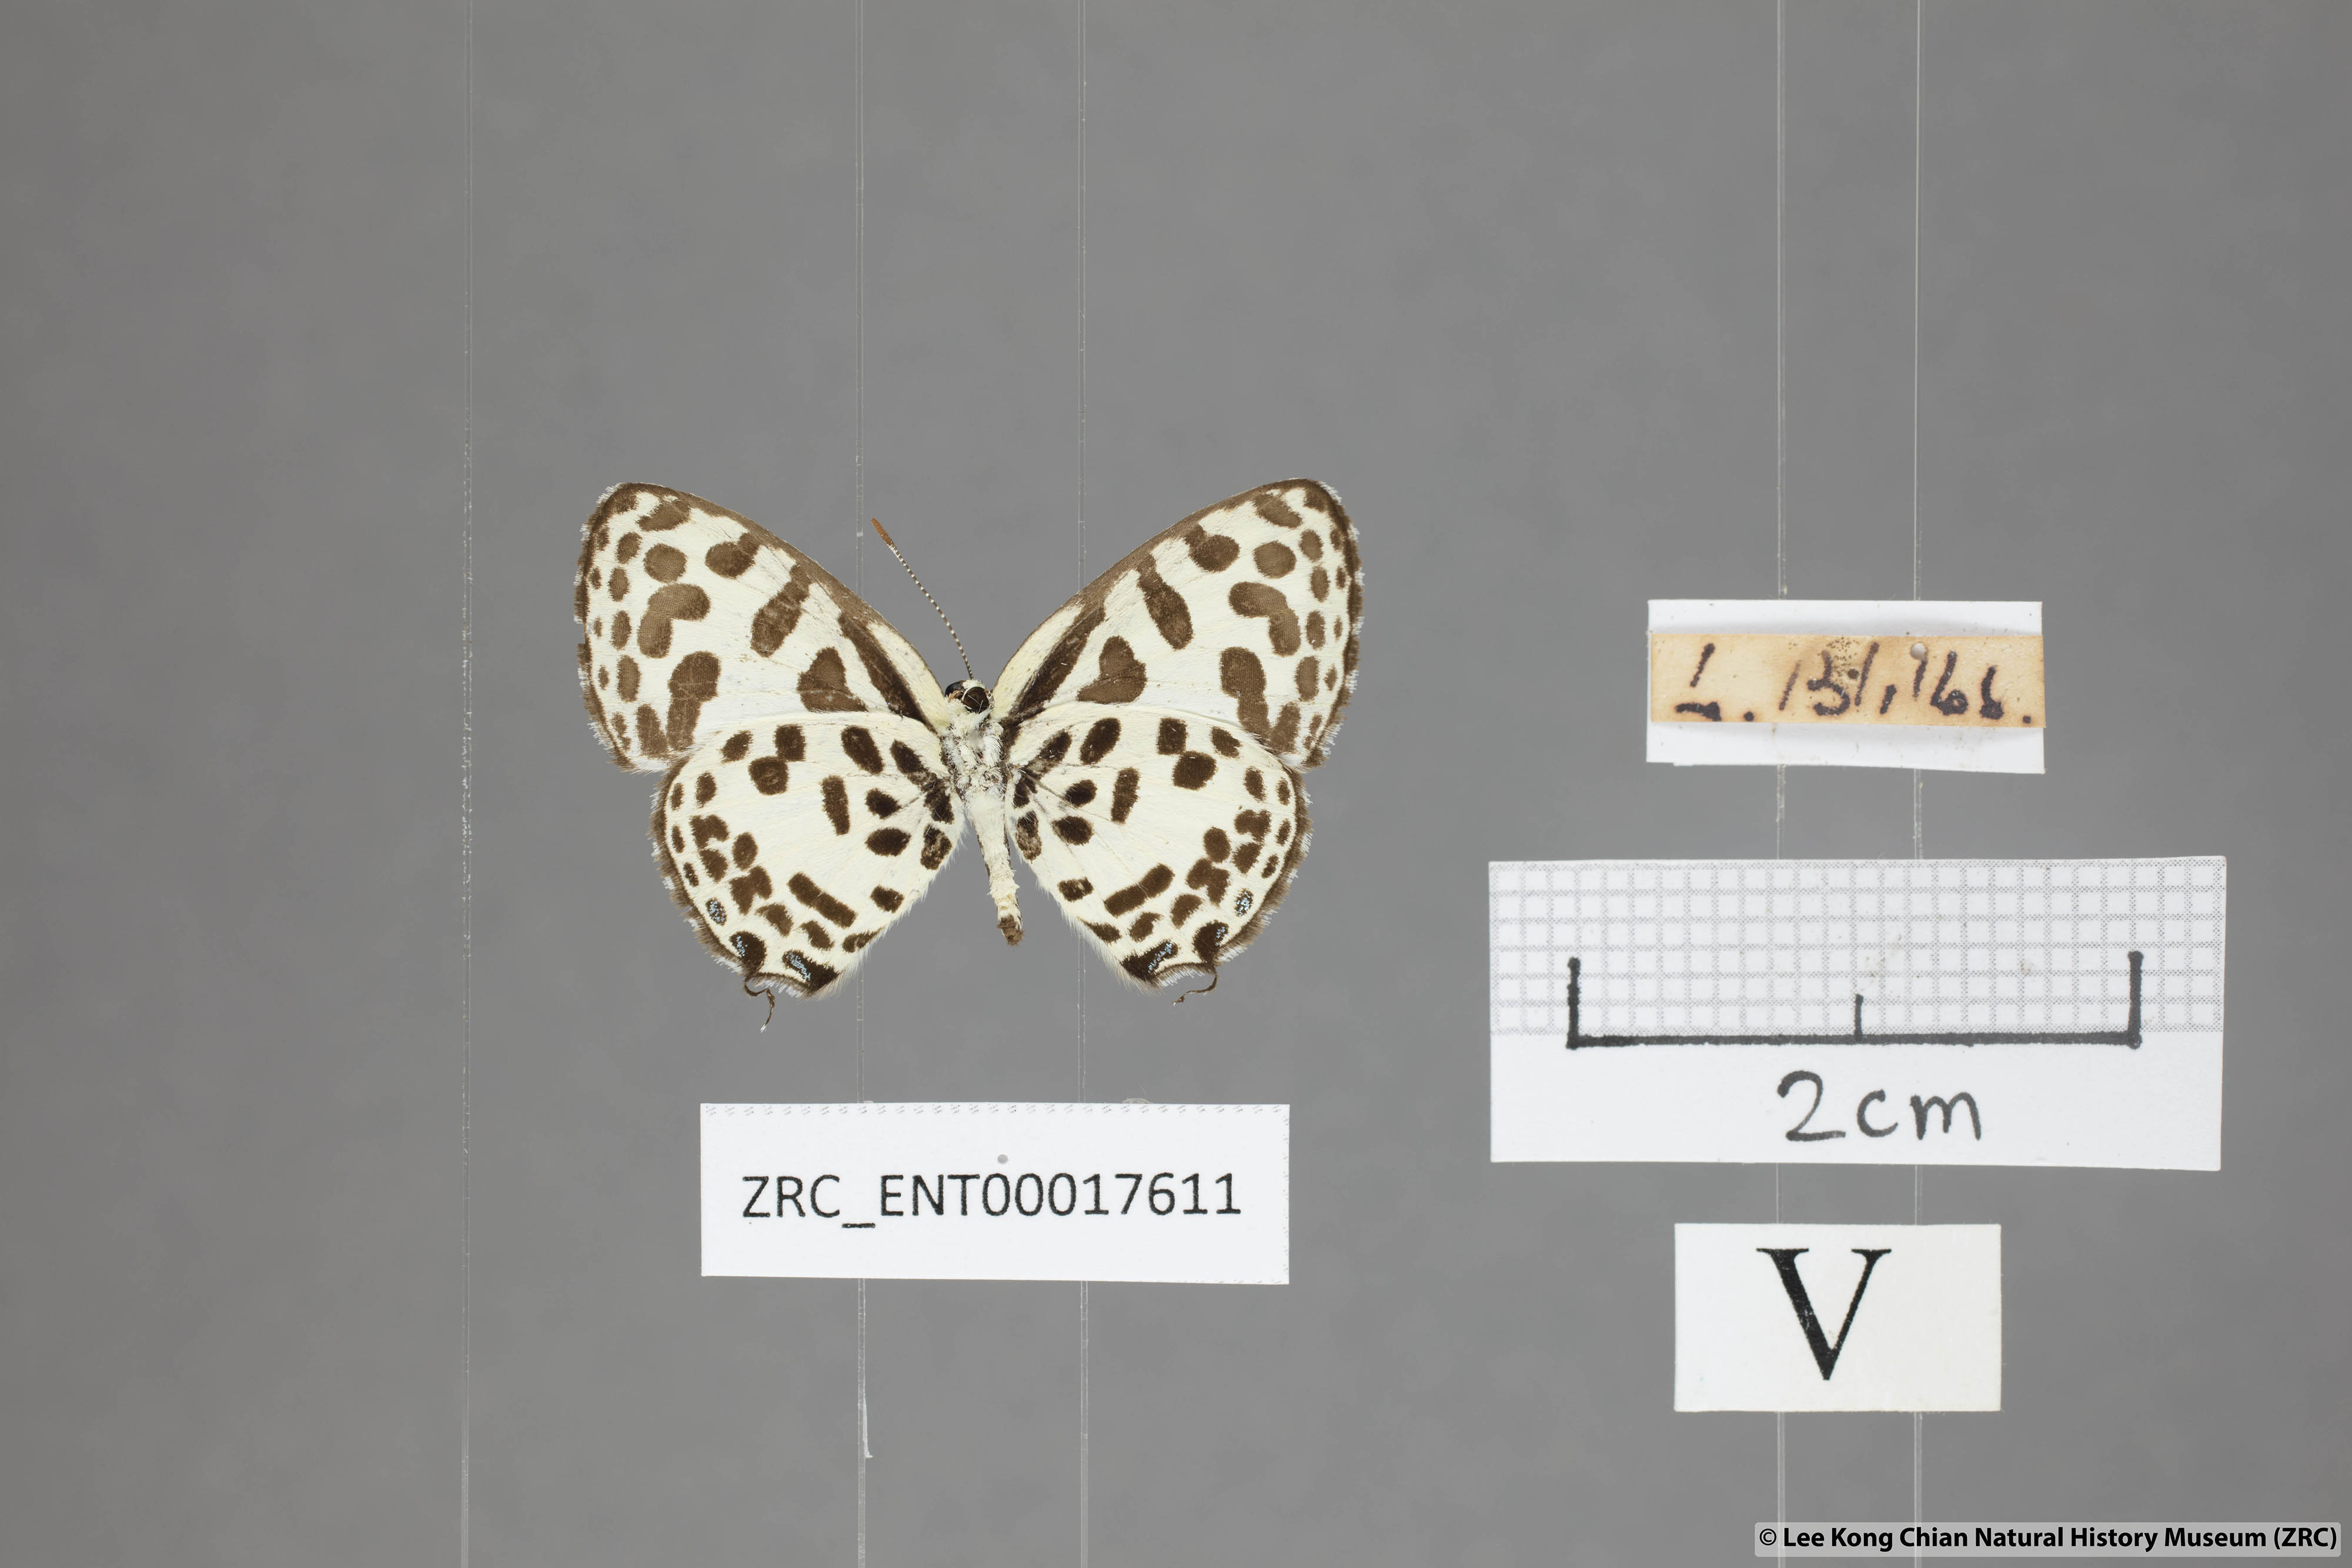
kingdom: Animalia
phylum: Arthropoda
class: Insecta
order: Lepidoptera
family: Lycaenidae
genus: Castalius
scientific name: Castalius rosimon
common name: Common pierrot
